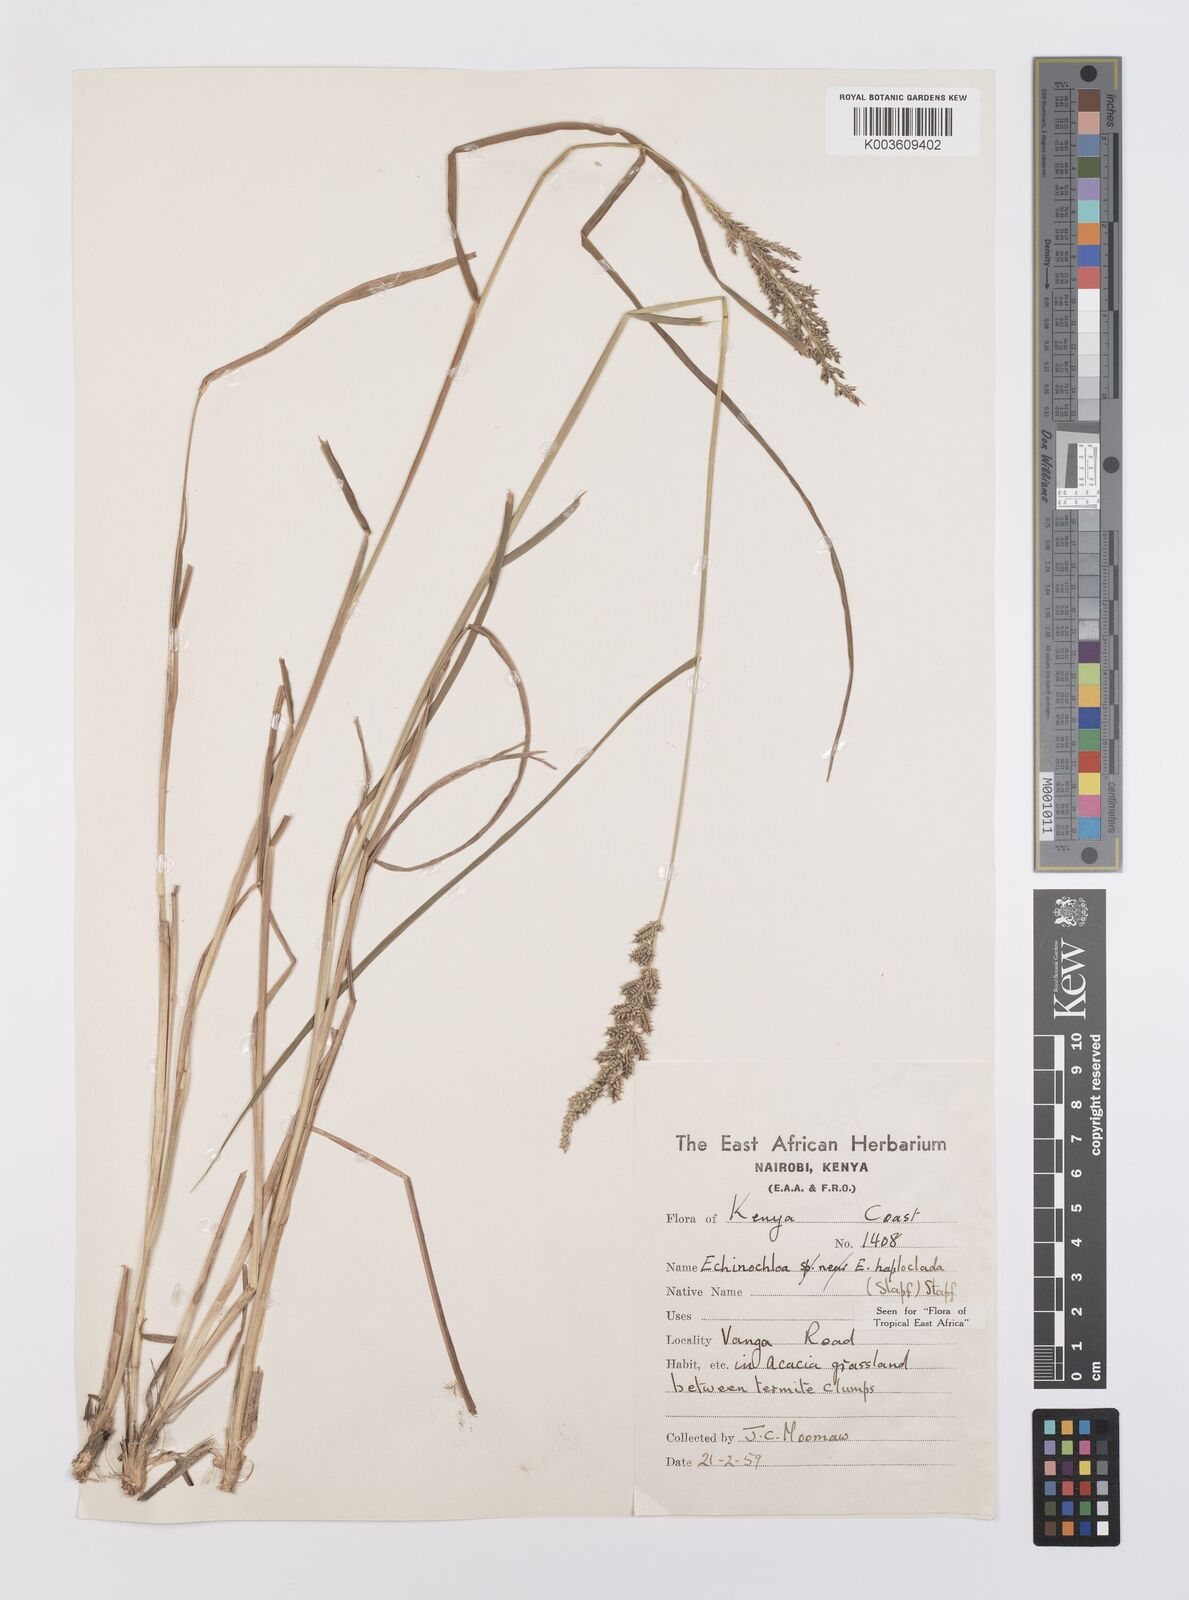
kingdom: Plantae
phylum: Tracheophyta
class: Liliopsida
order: Poales
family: Poaceae
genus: Echinochloa
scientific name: Echinochloa haploclada
